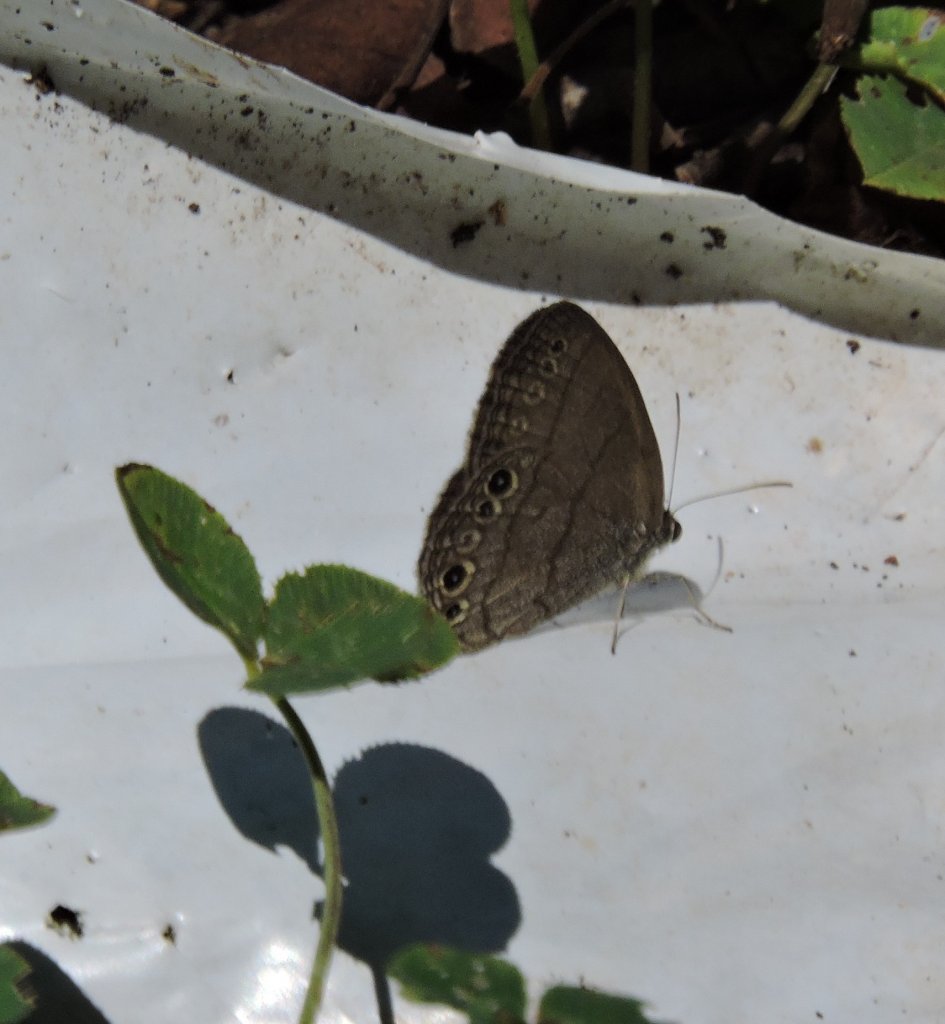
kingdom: Animalia
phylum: Arthropoda
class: Insecta
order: Lepidoptera
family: Nymphalidae
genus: Hermeuptychia
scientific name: Hermeuptychia hermes
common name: Carolina Satyr
